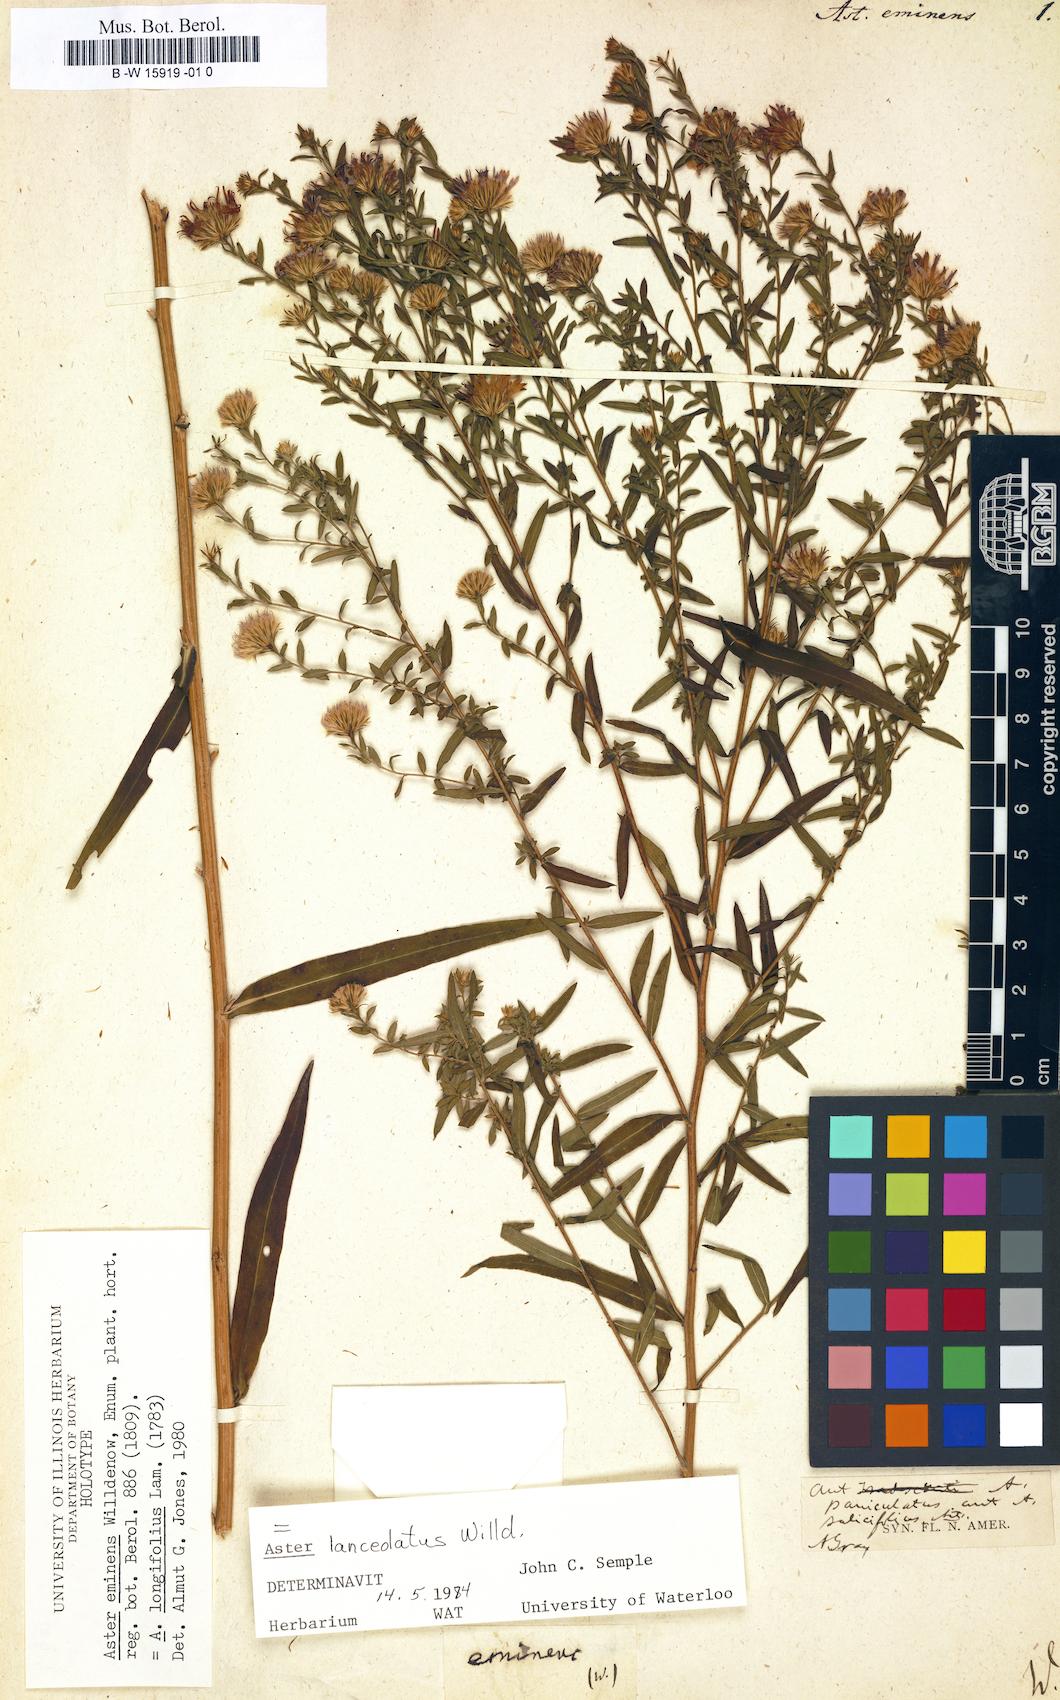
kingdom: Plantae
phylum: Tracheophyta
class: Magnoliopsida
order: Asterales
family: Asteraceae
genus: Symphyotrichum
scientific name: Symphyotrichum
